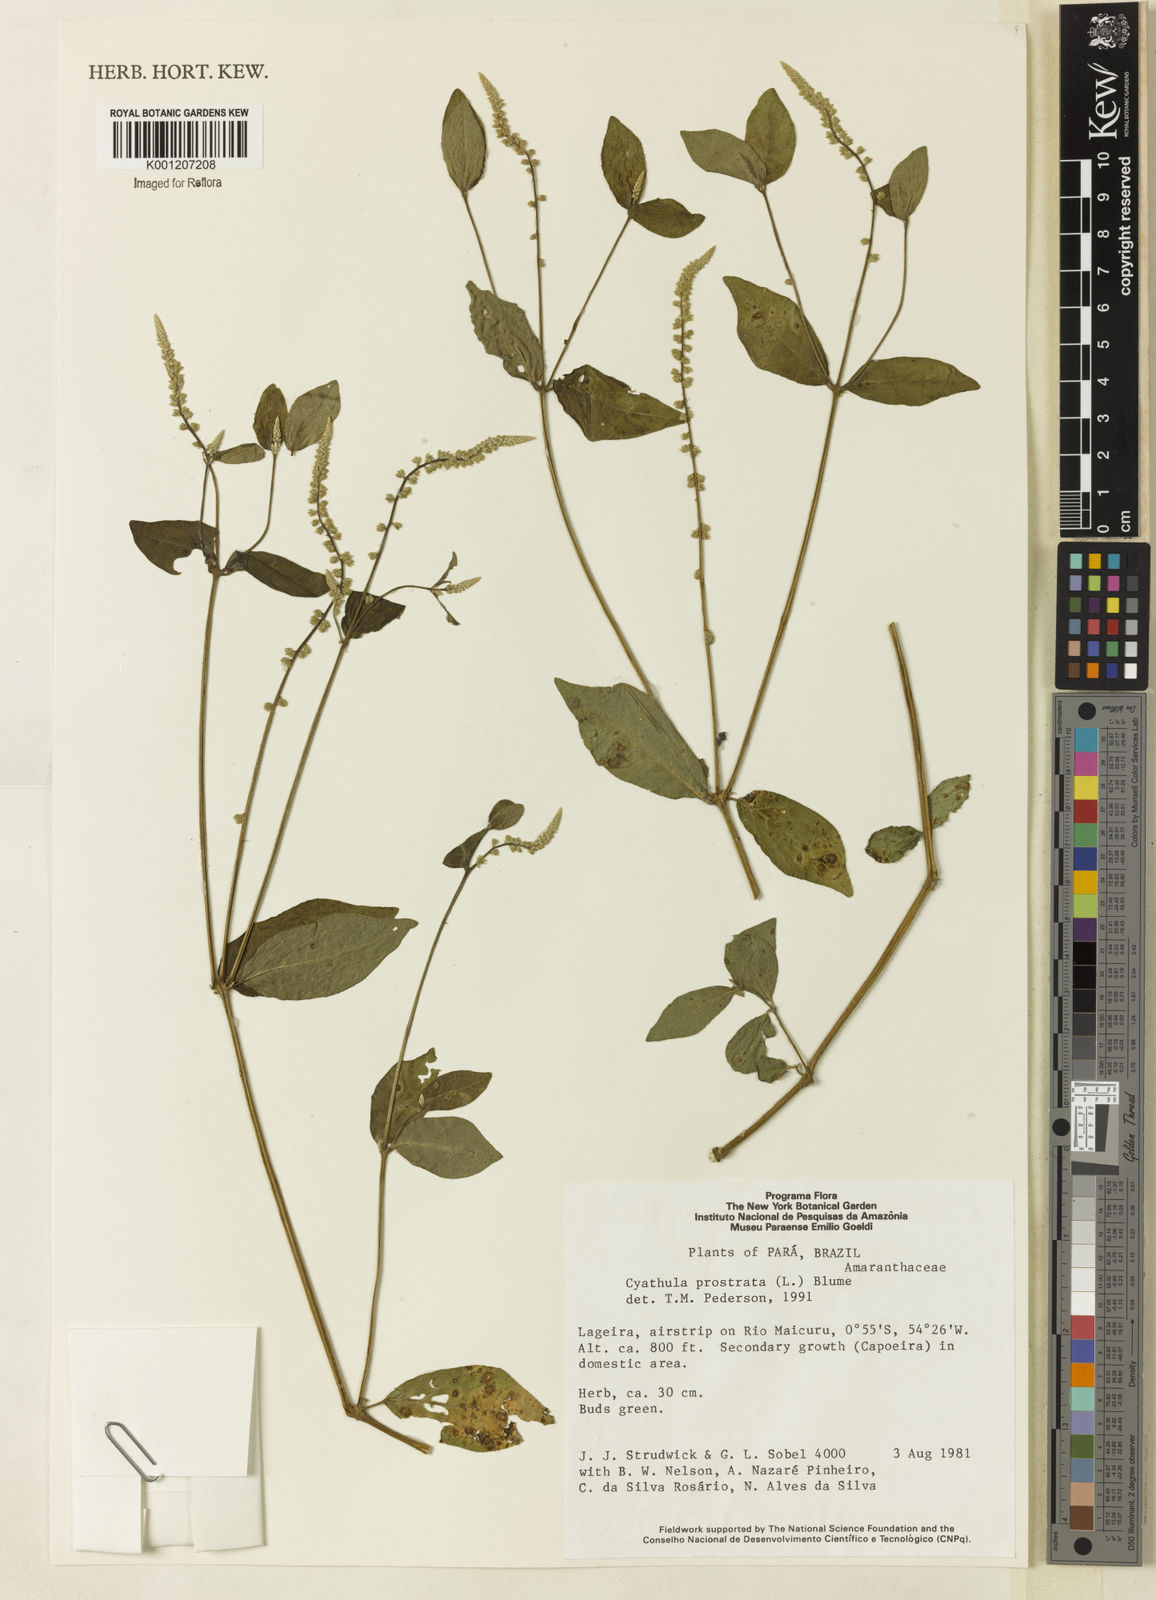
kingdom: Plantae
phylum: Tracheophyta
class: Magnoliopsida
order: Caryophyllales
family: Amaranthaceae
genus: Cyathula
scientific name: Cyathula prostrata
